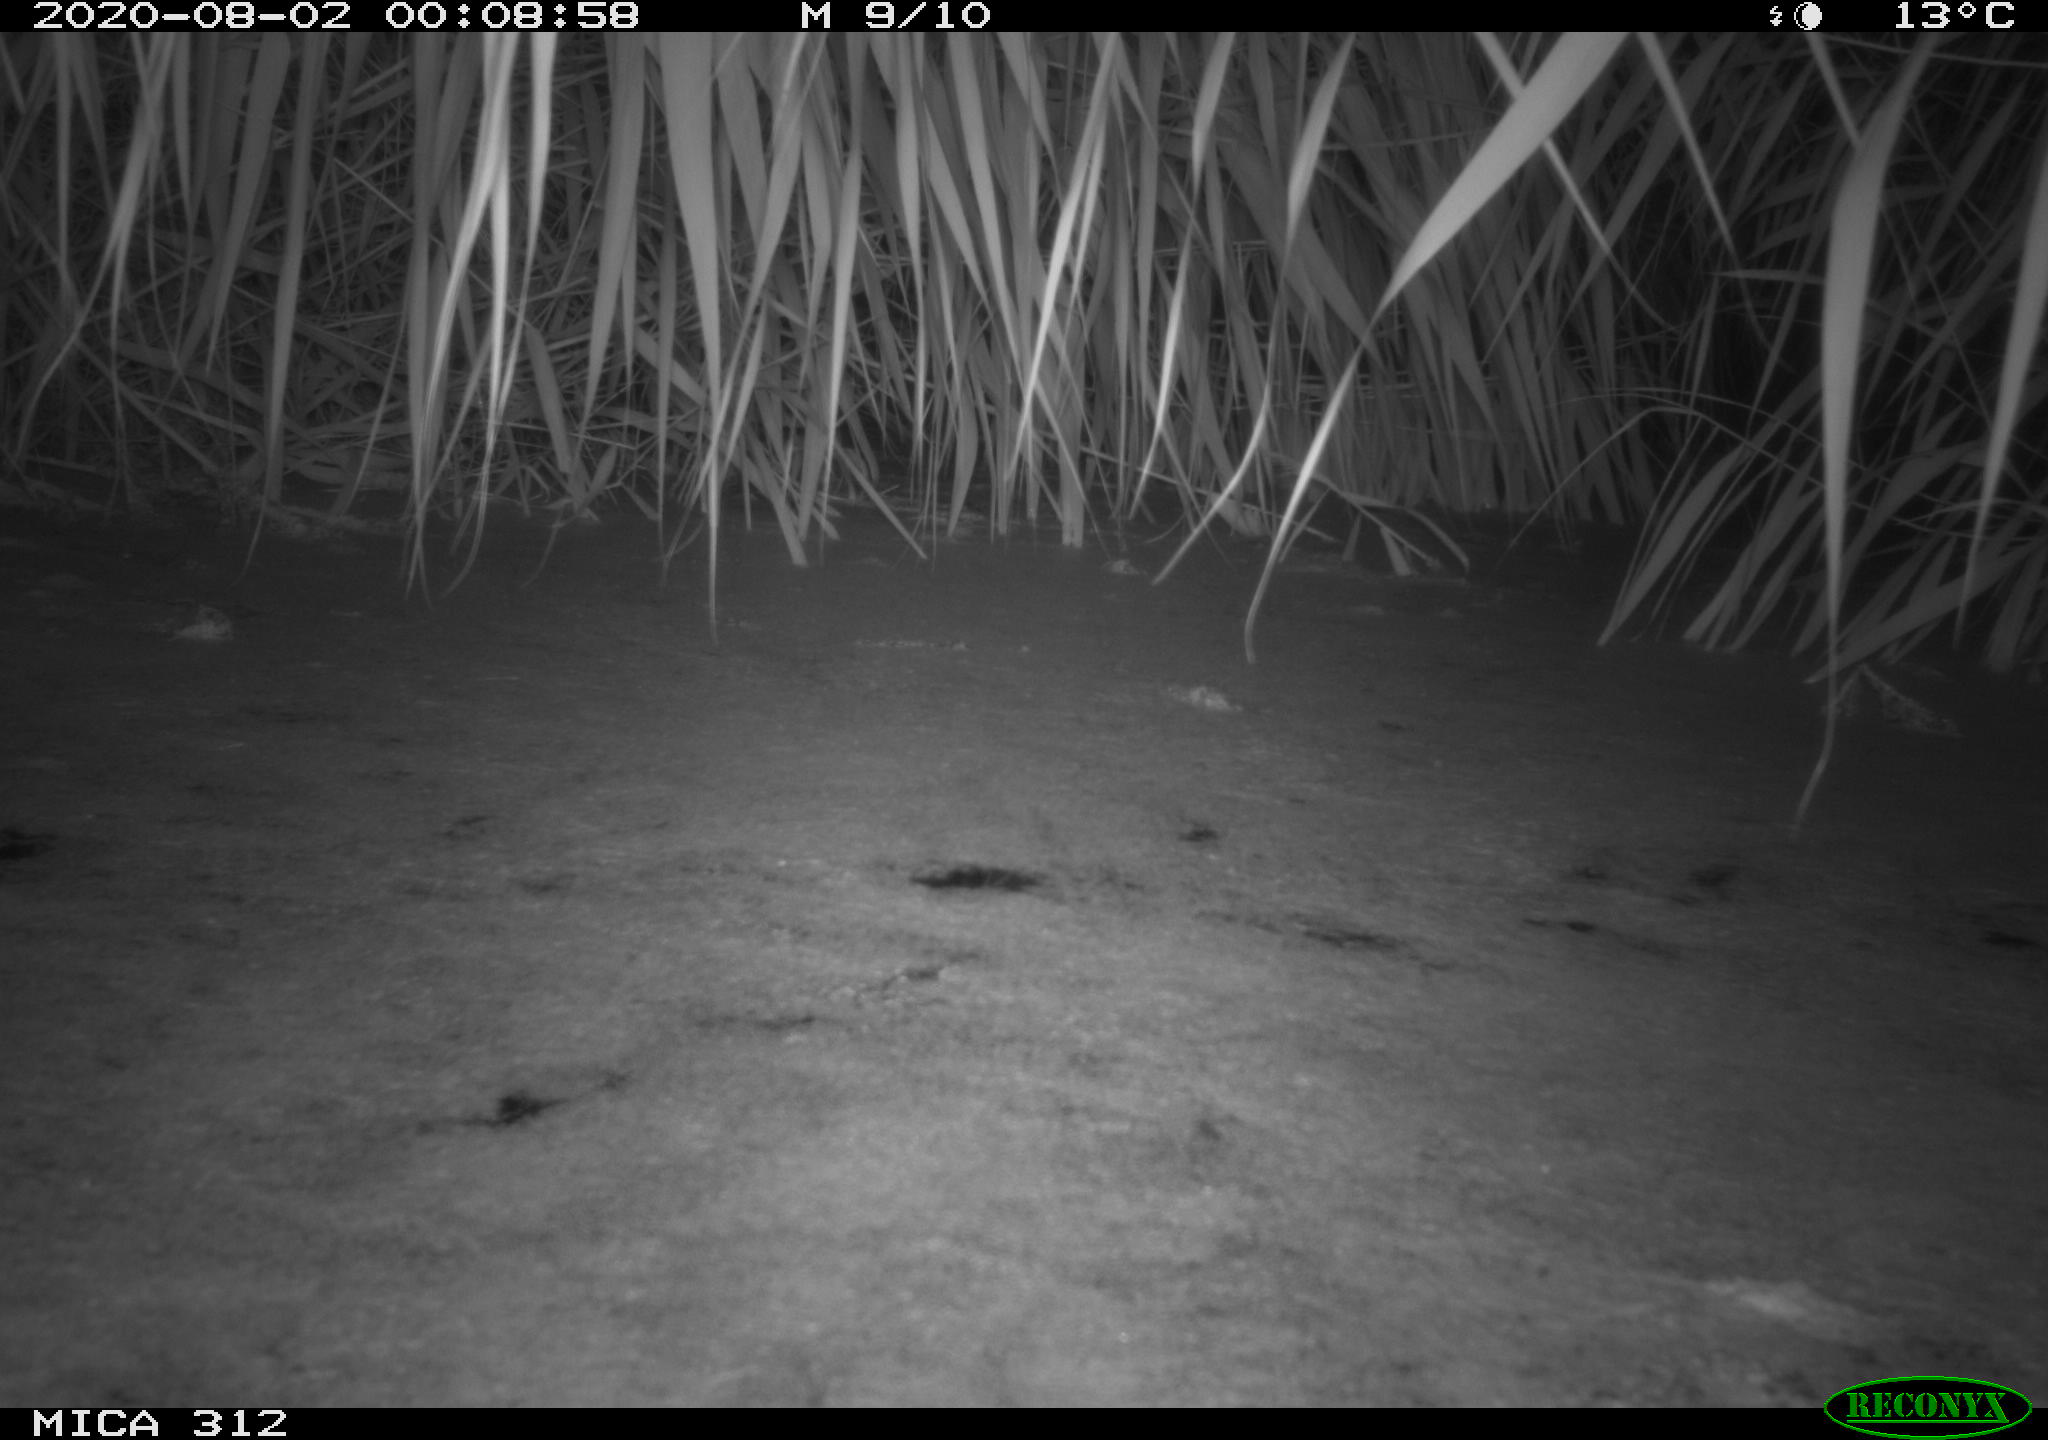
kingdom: Animalia
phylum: Chordata
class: Aves
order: Anseriformes
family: Anatidae
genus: Anas
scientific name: Anas platyrhynchos
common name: Mallard
